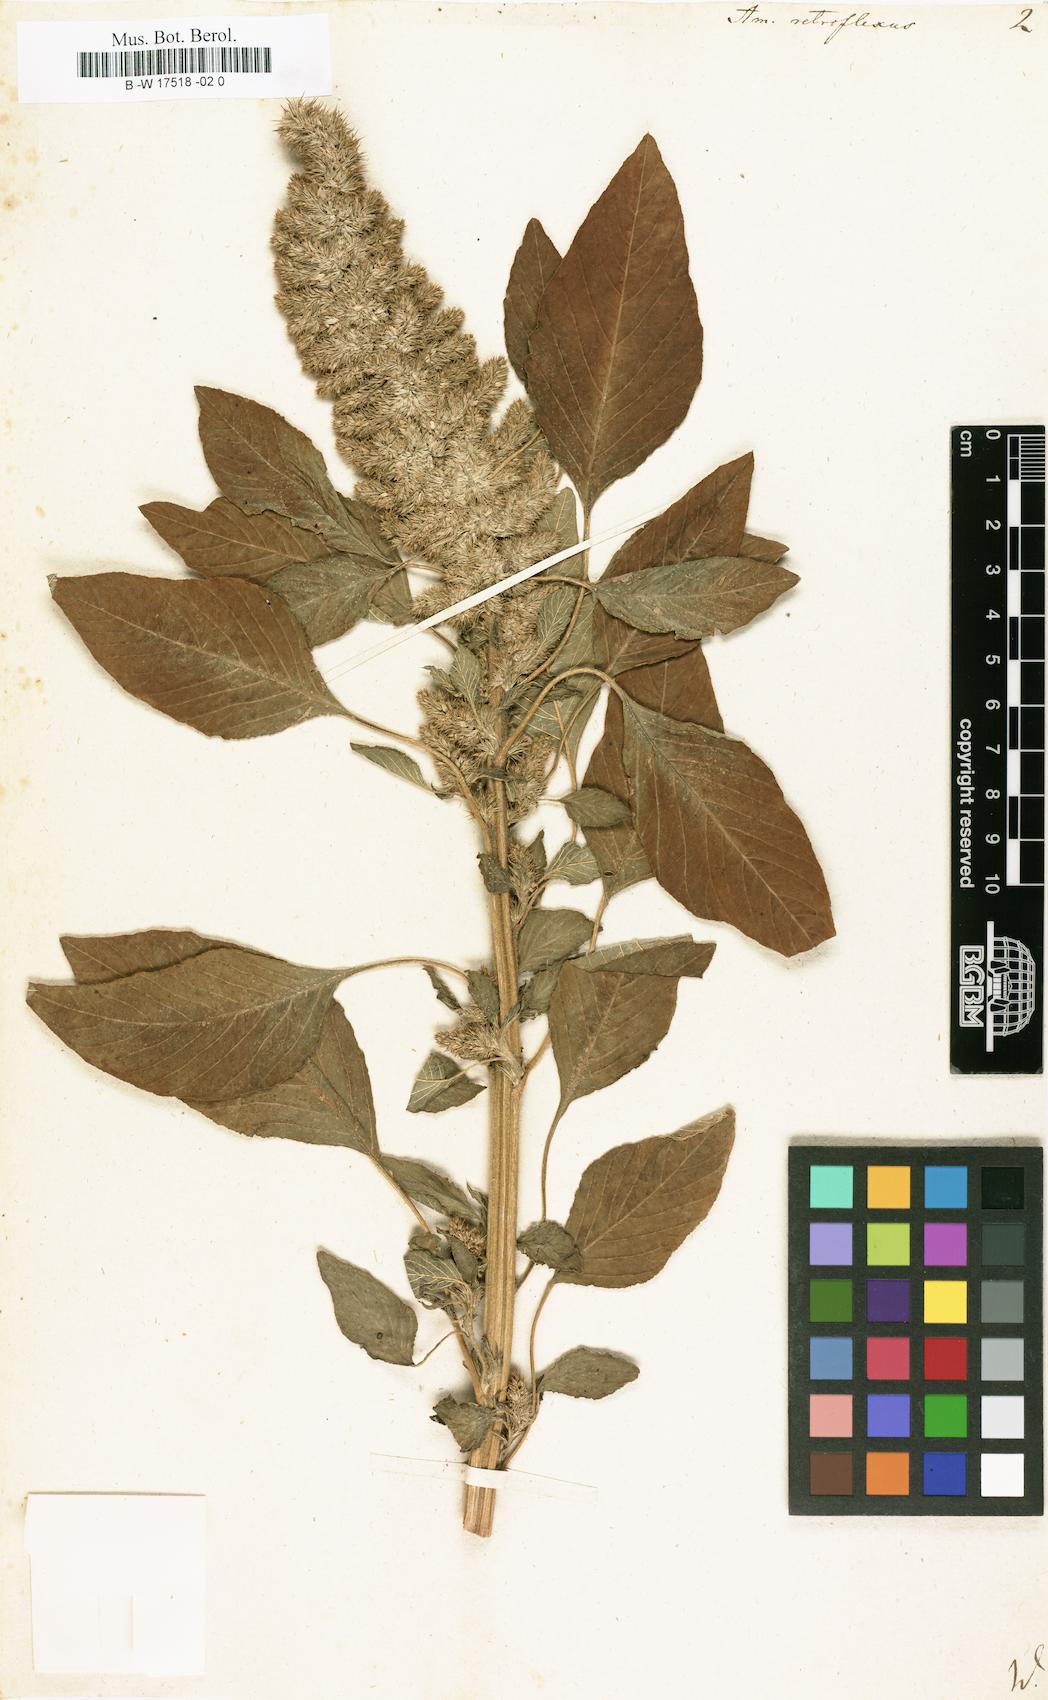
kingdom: Plantae
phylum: Tracheophyta
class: Magnoliopsida
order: Caryophyllales
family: Amaranthaceae
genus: Amaranthus
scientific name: Amaranthus retroflexus
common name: Redroot amaranth
